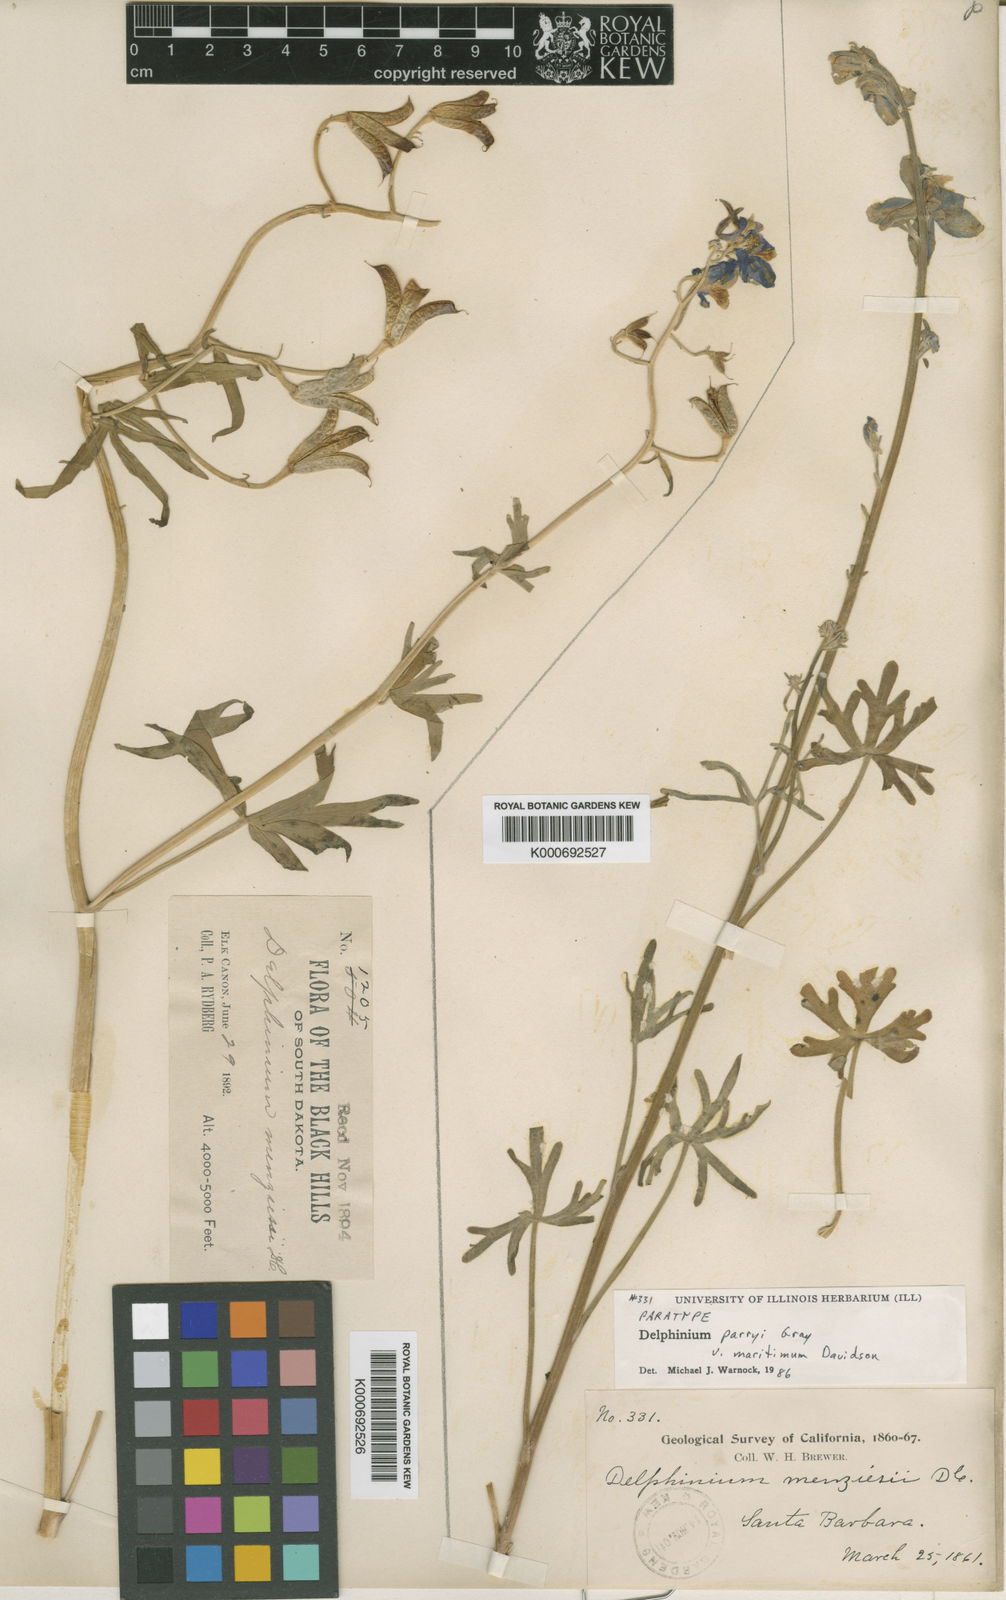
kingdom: Plantae
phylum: Tracheophyta
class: Magnoliopsida
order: Ranunculales
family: Ranunculaceae
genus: Delphinium
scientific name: Delphinium parryi
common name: Parry's larkspur
